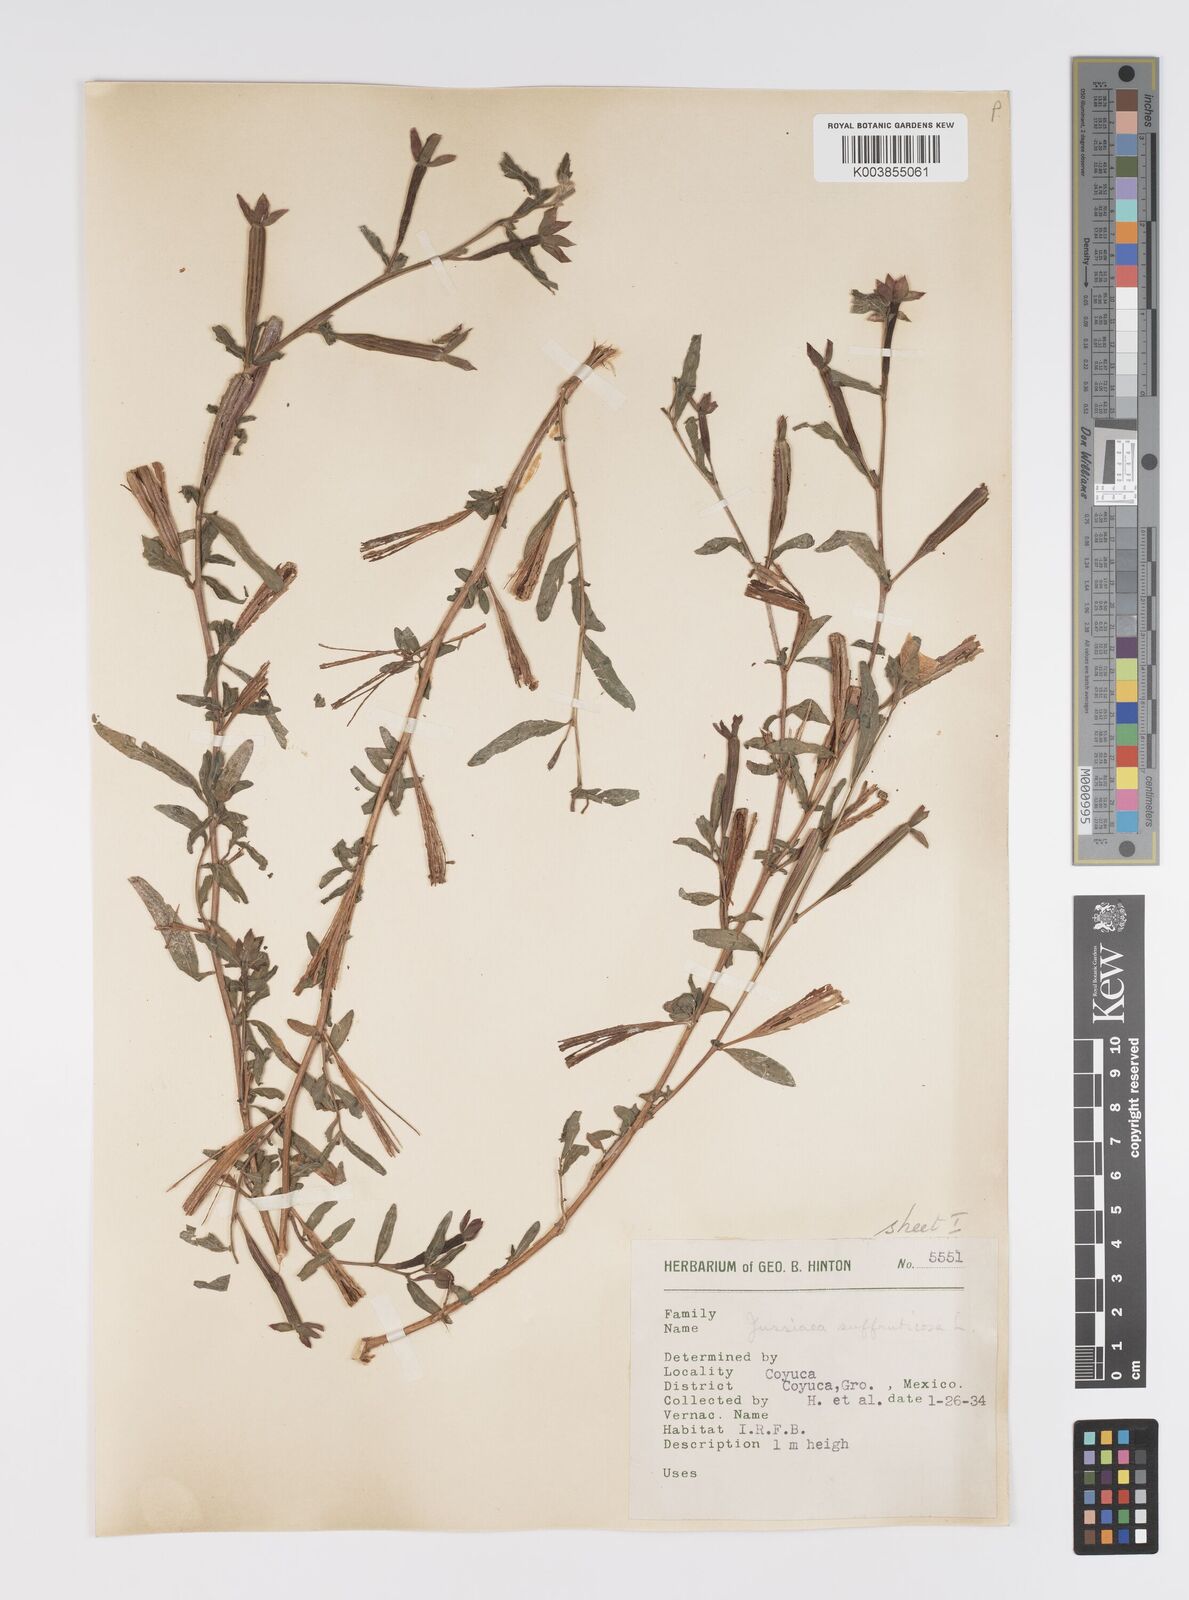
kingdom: Plantae
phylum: Tracheophyta
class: Magnoliopsida
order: Myrtales
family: Onagraceae
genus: Ludwigia
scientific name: Ludwigia octovalvis
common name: Water-primrose
